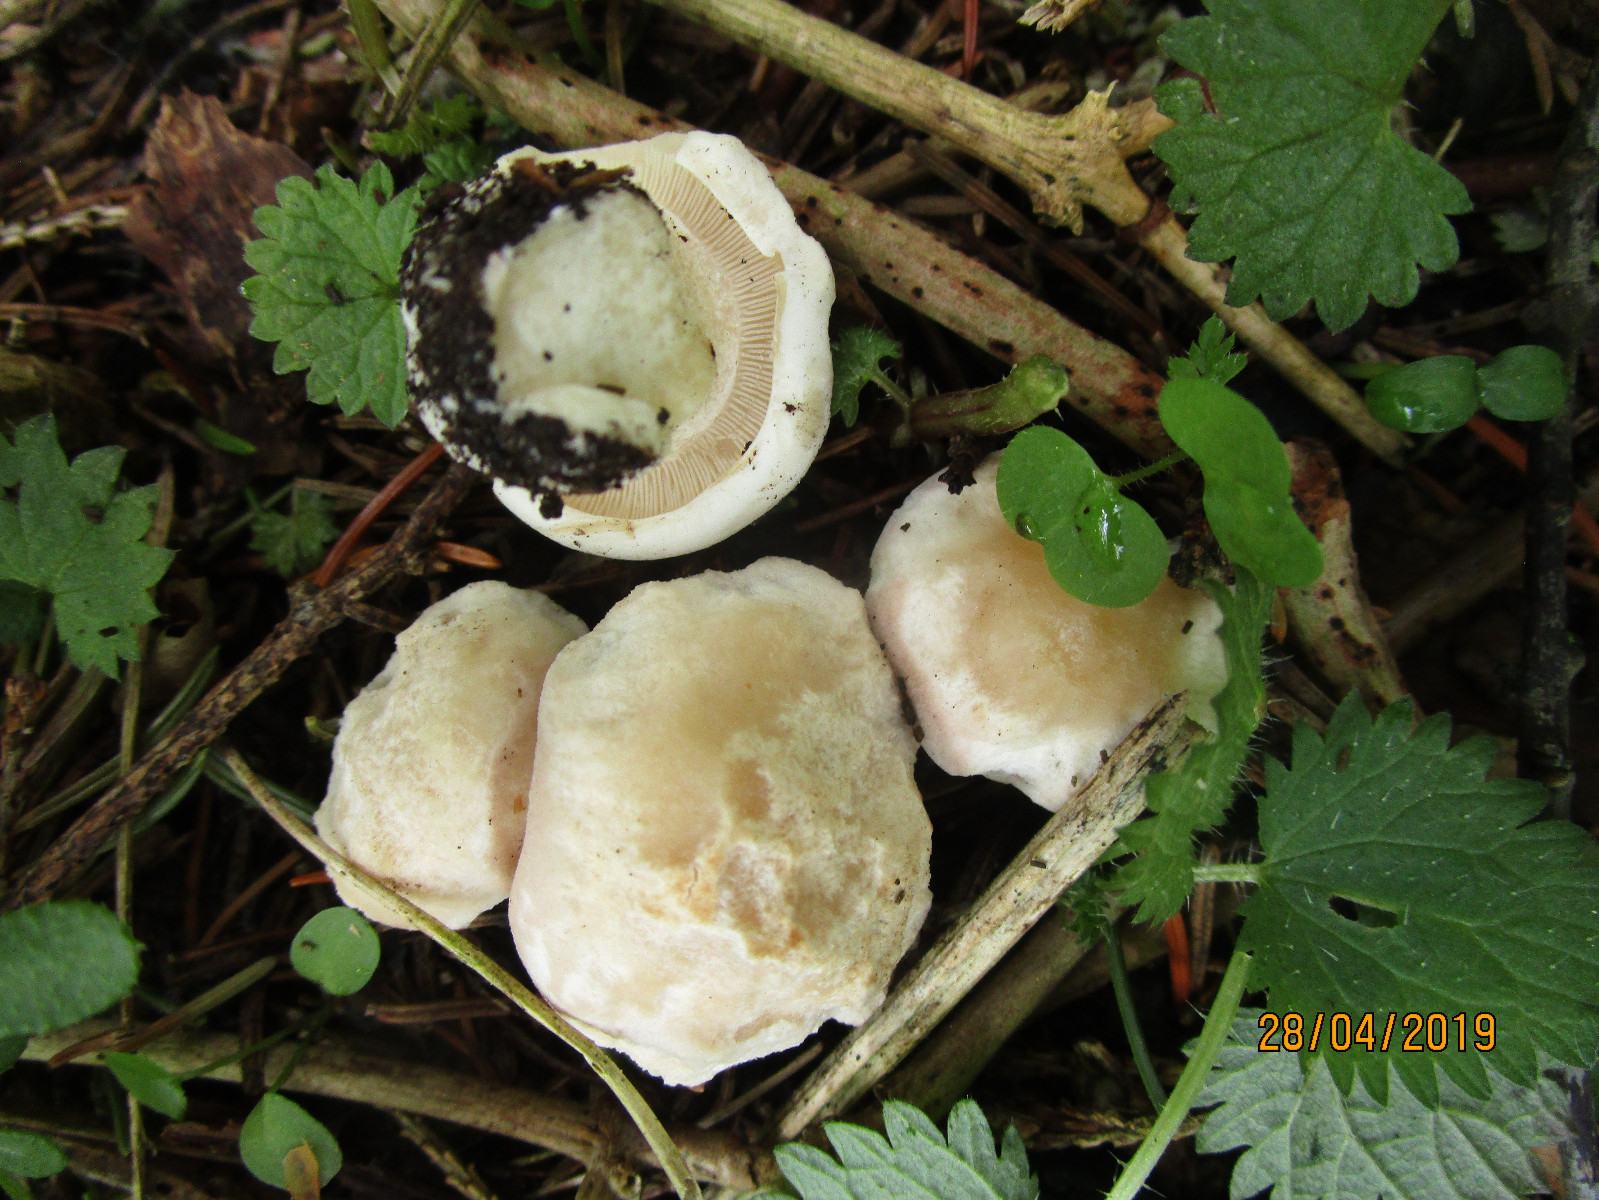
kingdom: Fungi
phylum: Basidiomycota
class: Agaricomycetes
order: Agaricales
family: Lyophyllaceae
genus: Calocybe
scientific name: Calocybe gambosa
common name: vårmusseron
